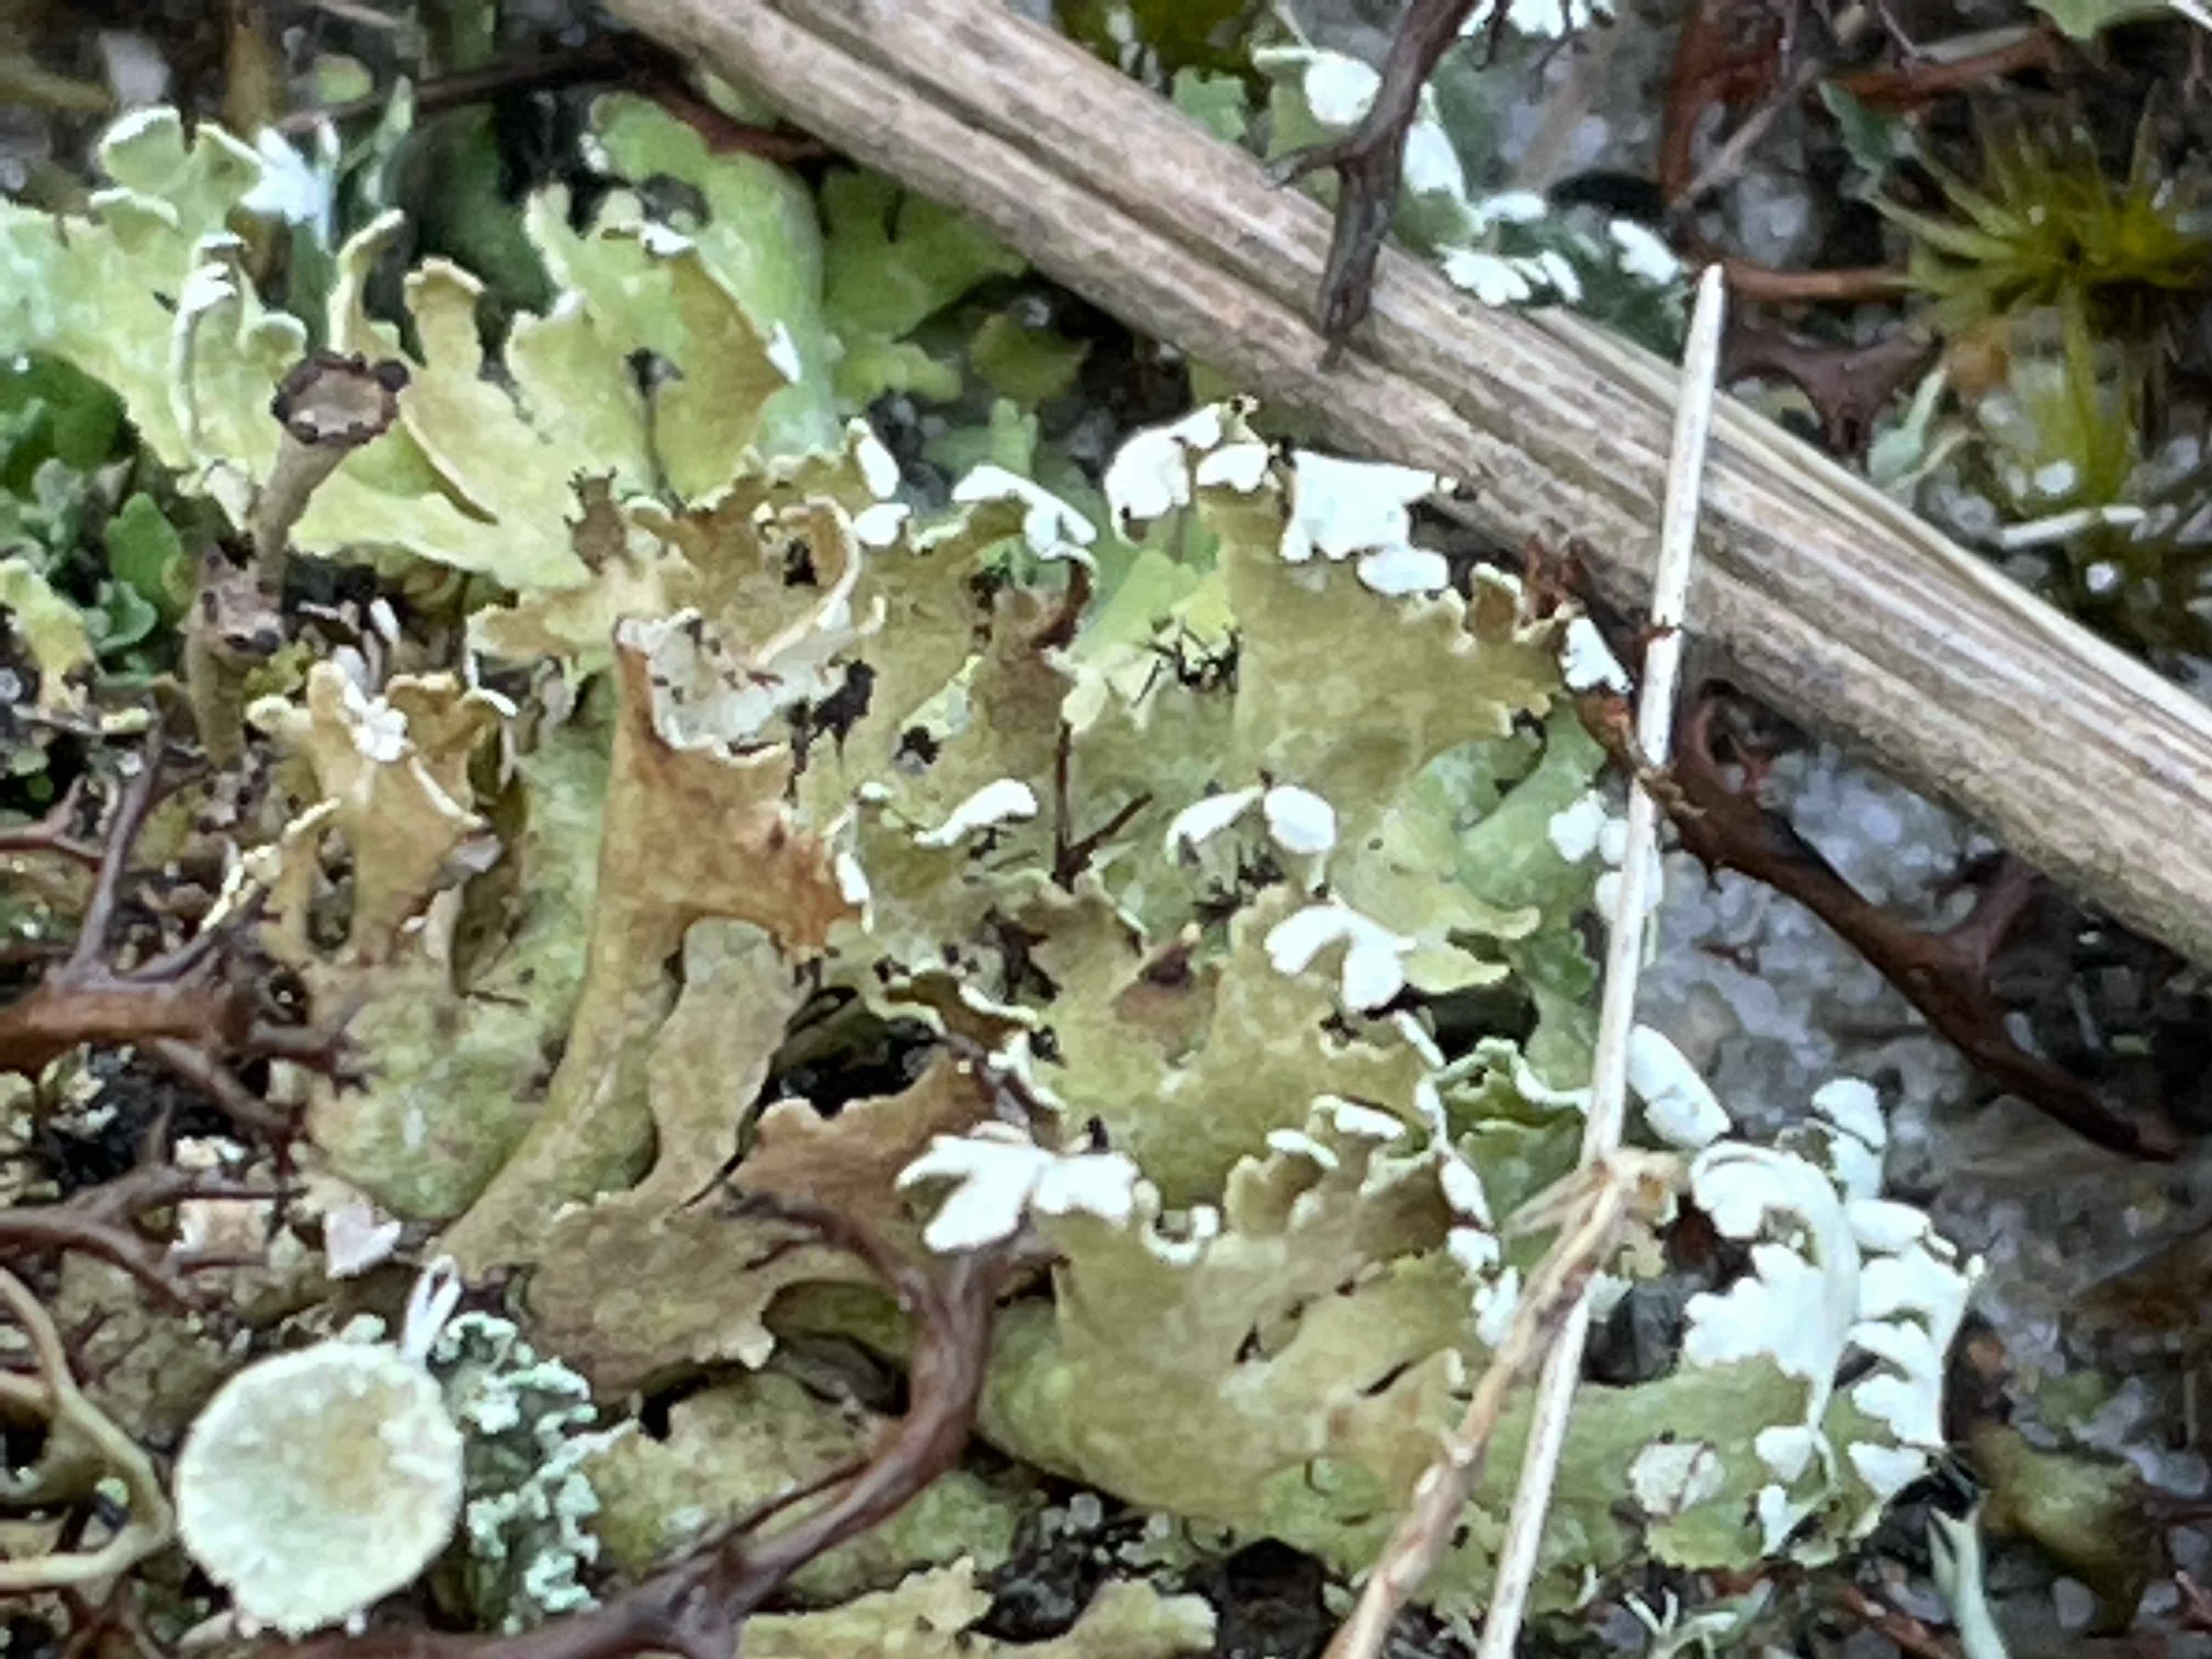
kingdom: Fungi
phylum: Ascomycota
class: Lecanoromycetes
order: Lecanorales
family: Cladoniaceae
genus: Cladonia
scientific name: Cladonia foliacea
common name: fliget bægerlav
